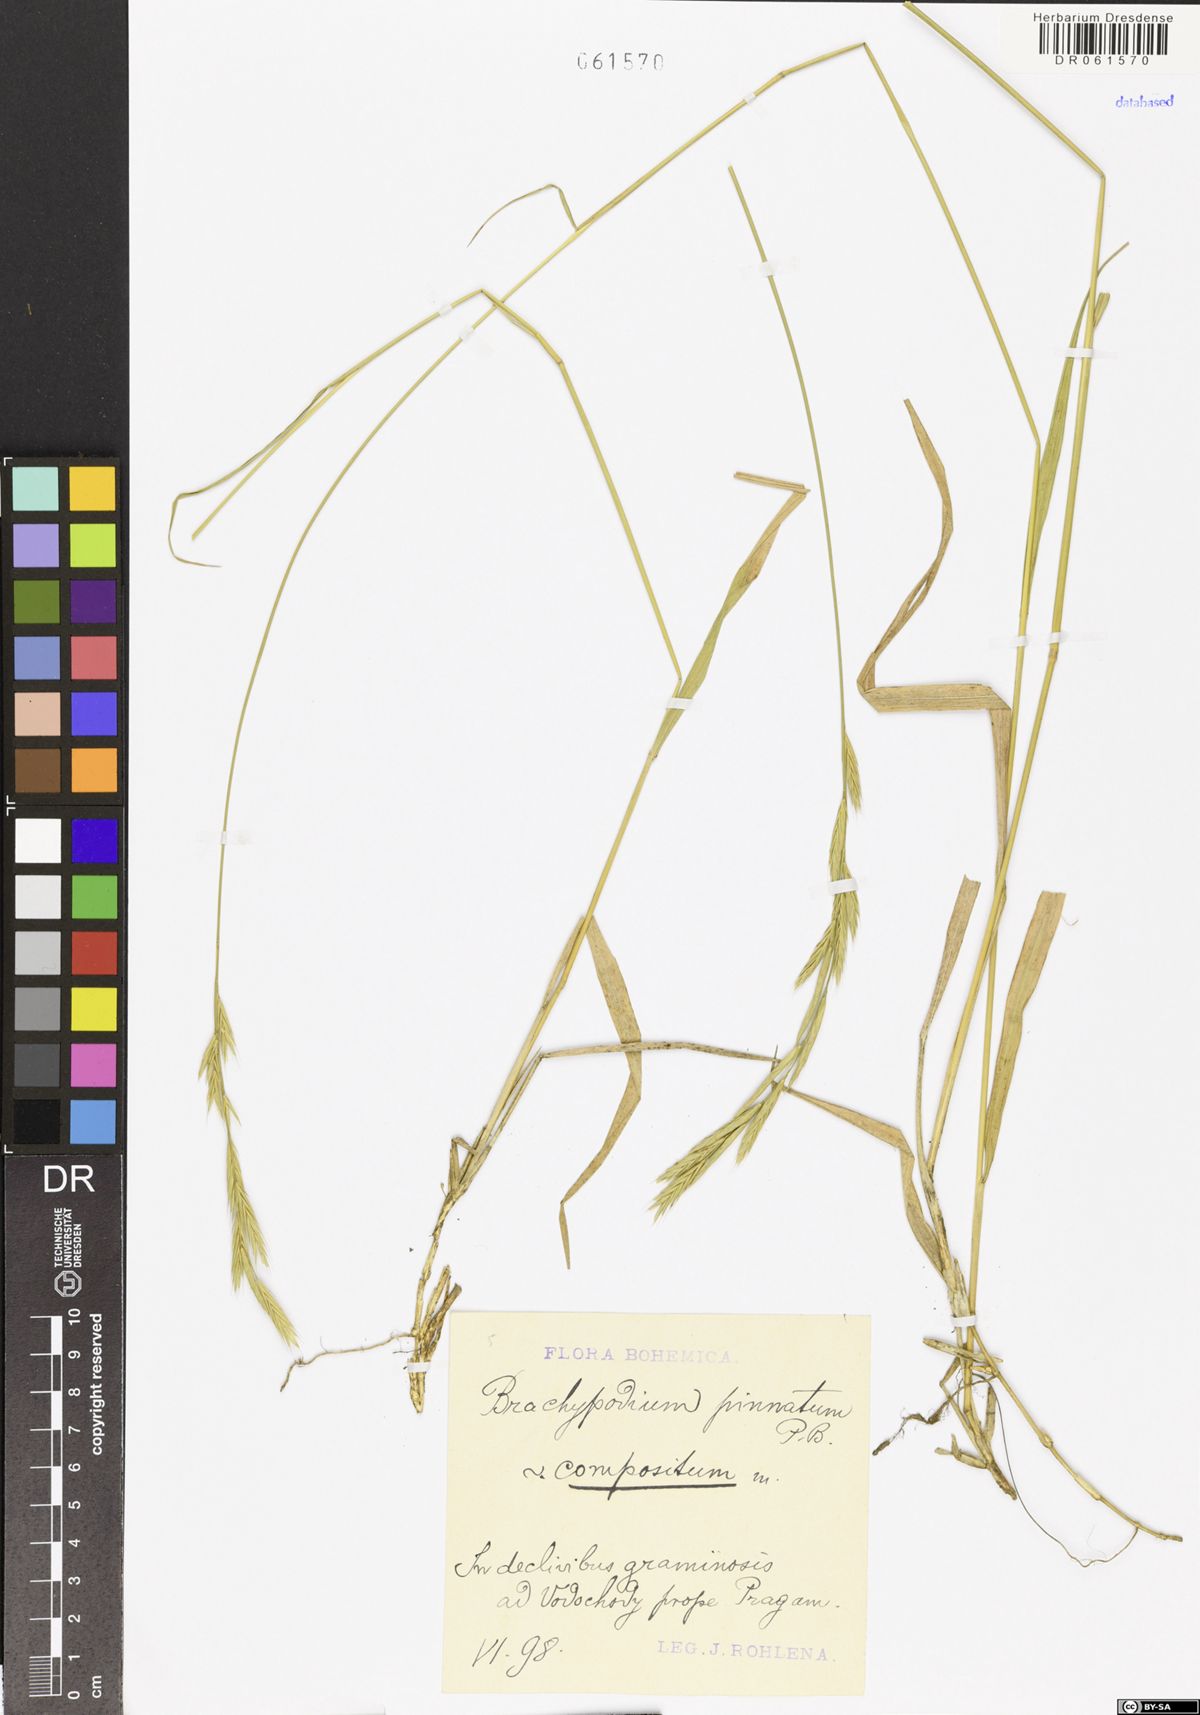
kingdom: Plantae
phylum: Tracheophyta
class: Liliopsida
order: Poales
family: Poaceae
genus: Brachypodium
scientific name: Brachypodium pinnatum
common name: Tor grass
